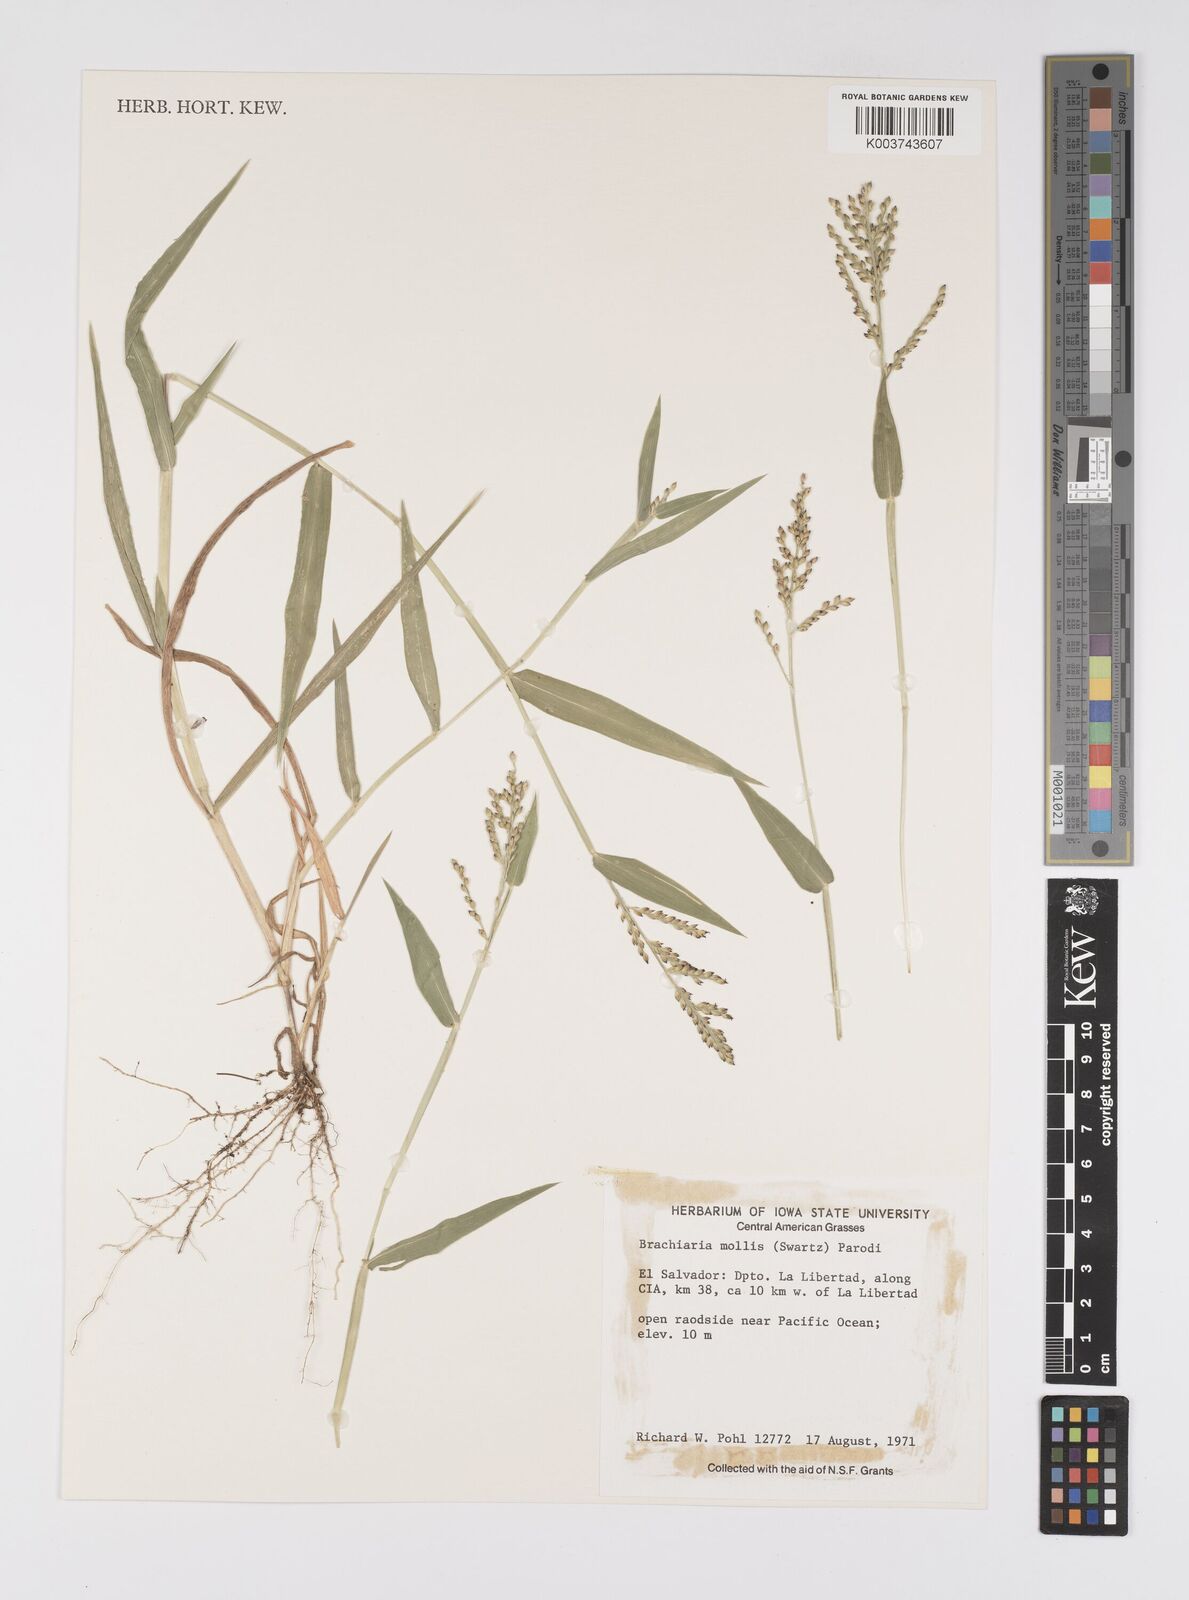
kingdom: Plantae
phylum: Tracheophyta
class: Liliopsida
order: Poales
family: Poaceae
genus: Urochloa
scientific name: Urochloa mollis
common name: Grass
